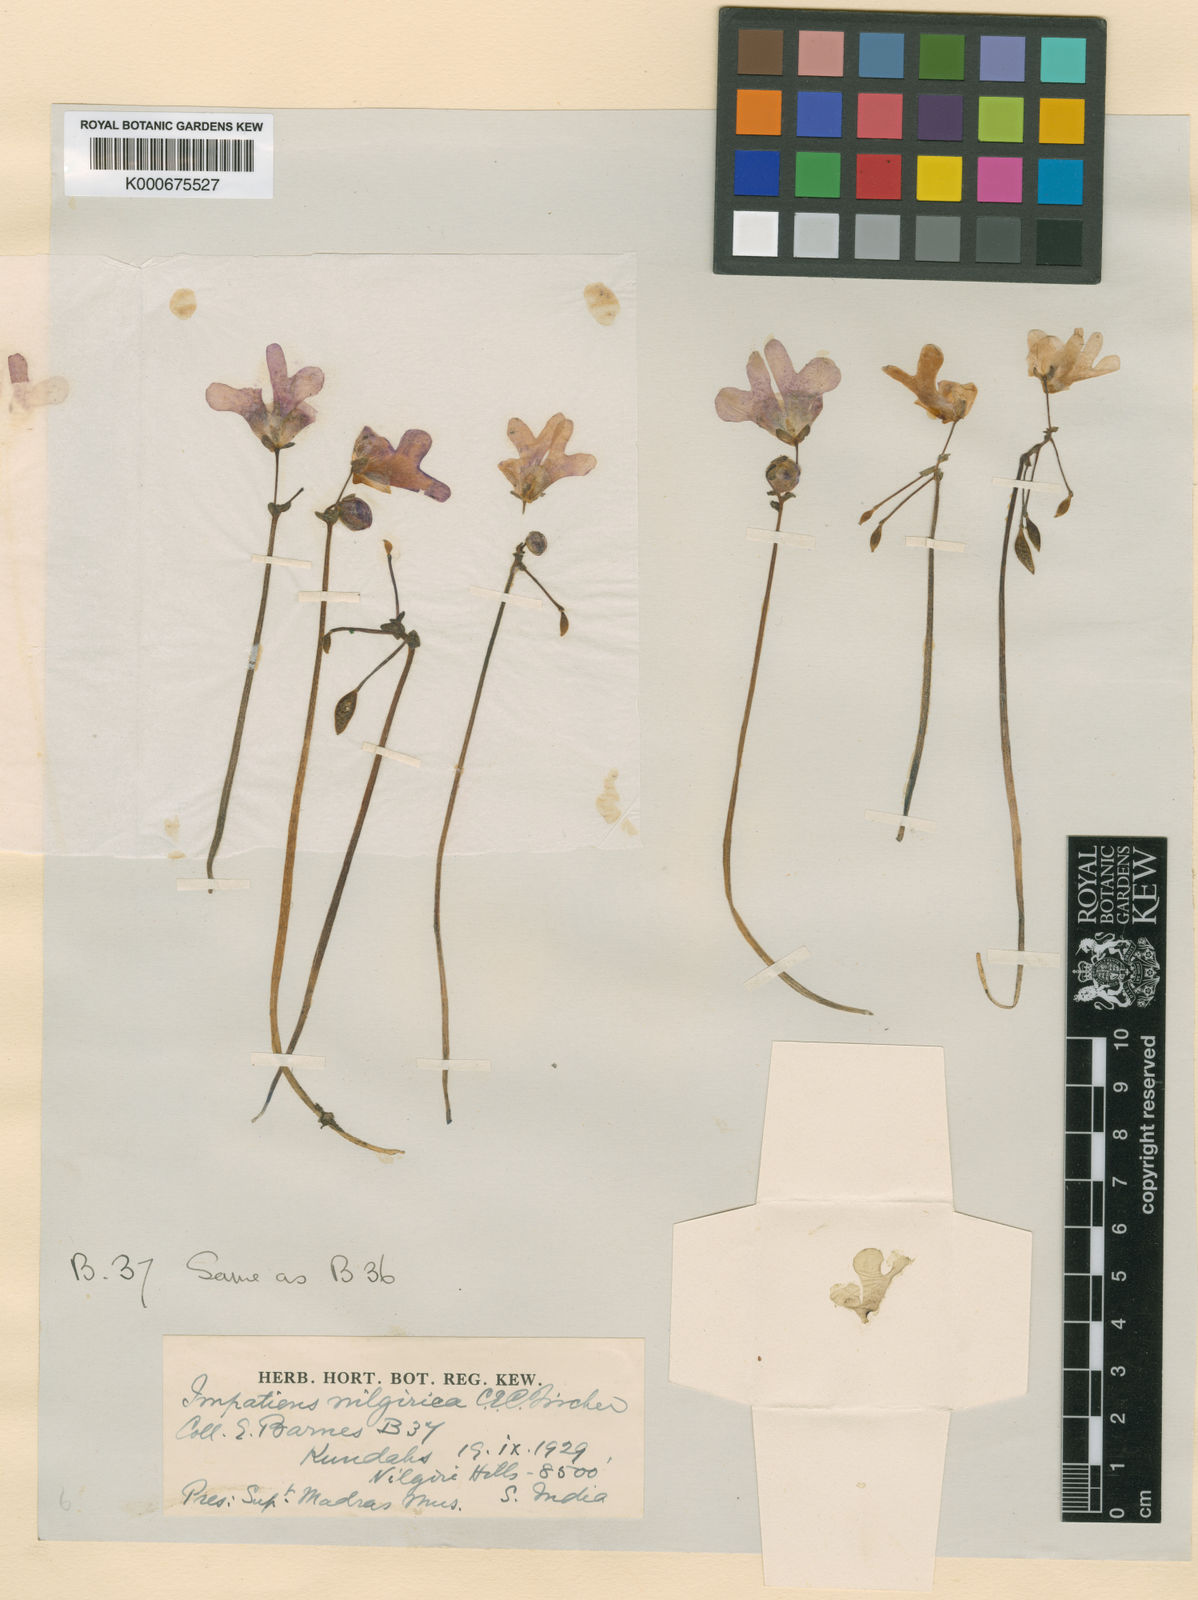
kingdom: Plantae
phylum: Tracheophyta
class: Magnoliopsida
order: Ericales
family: Balsaminaceae
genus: Impatiens
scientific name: Impatiens nilgirica
